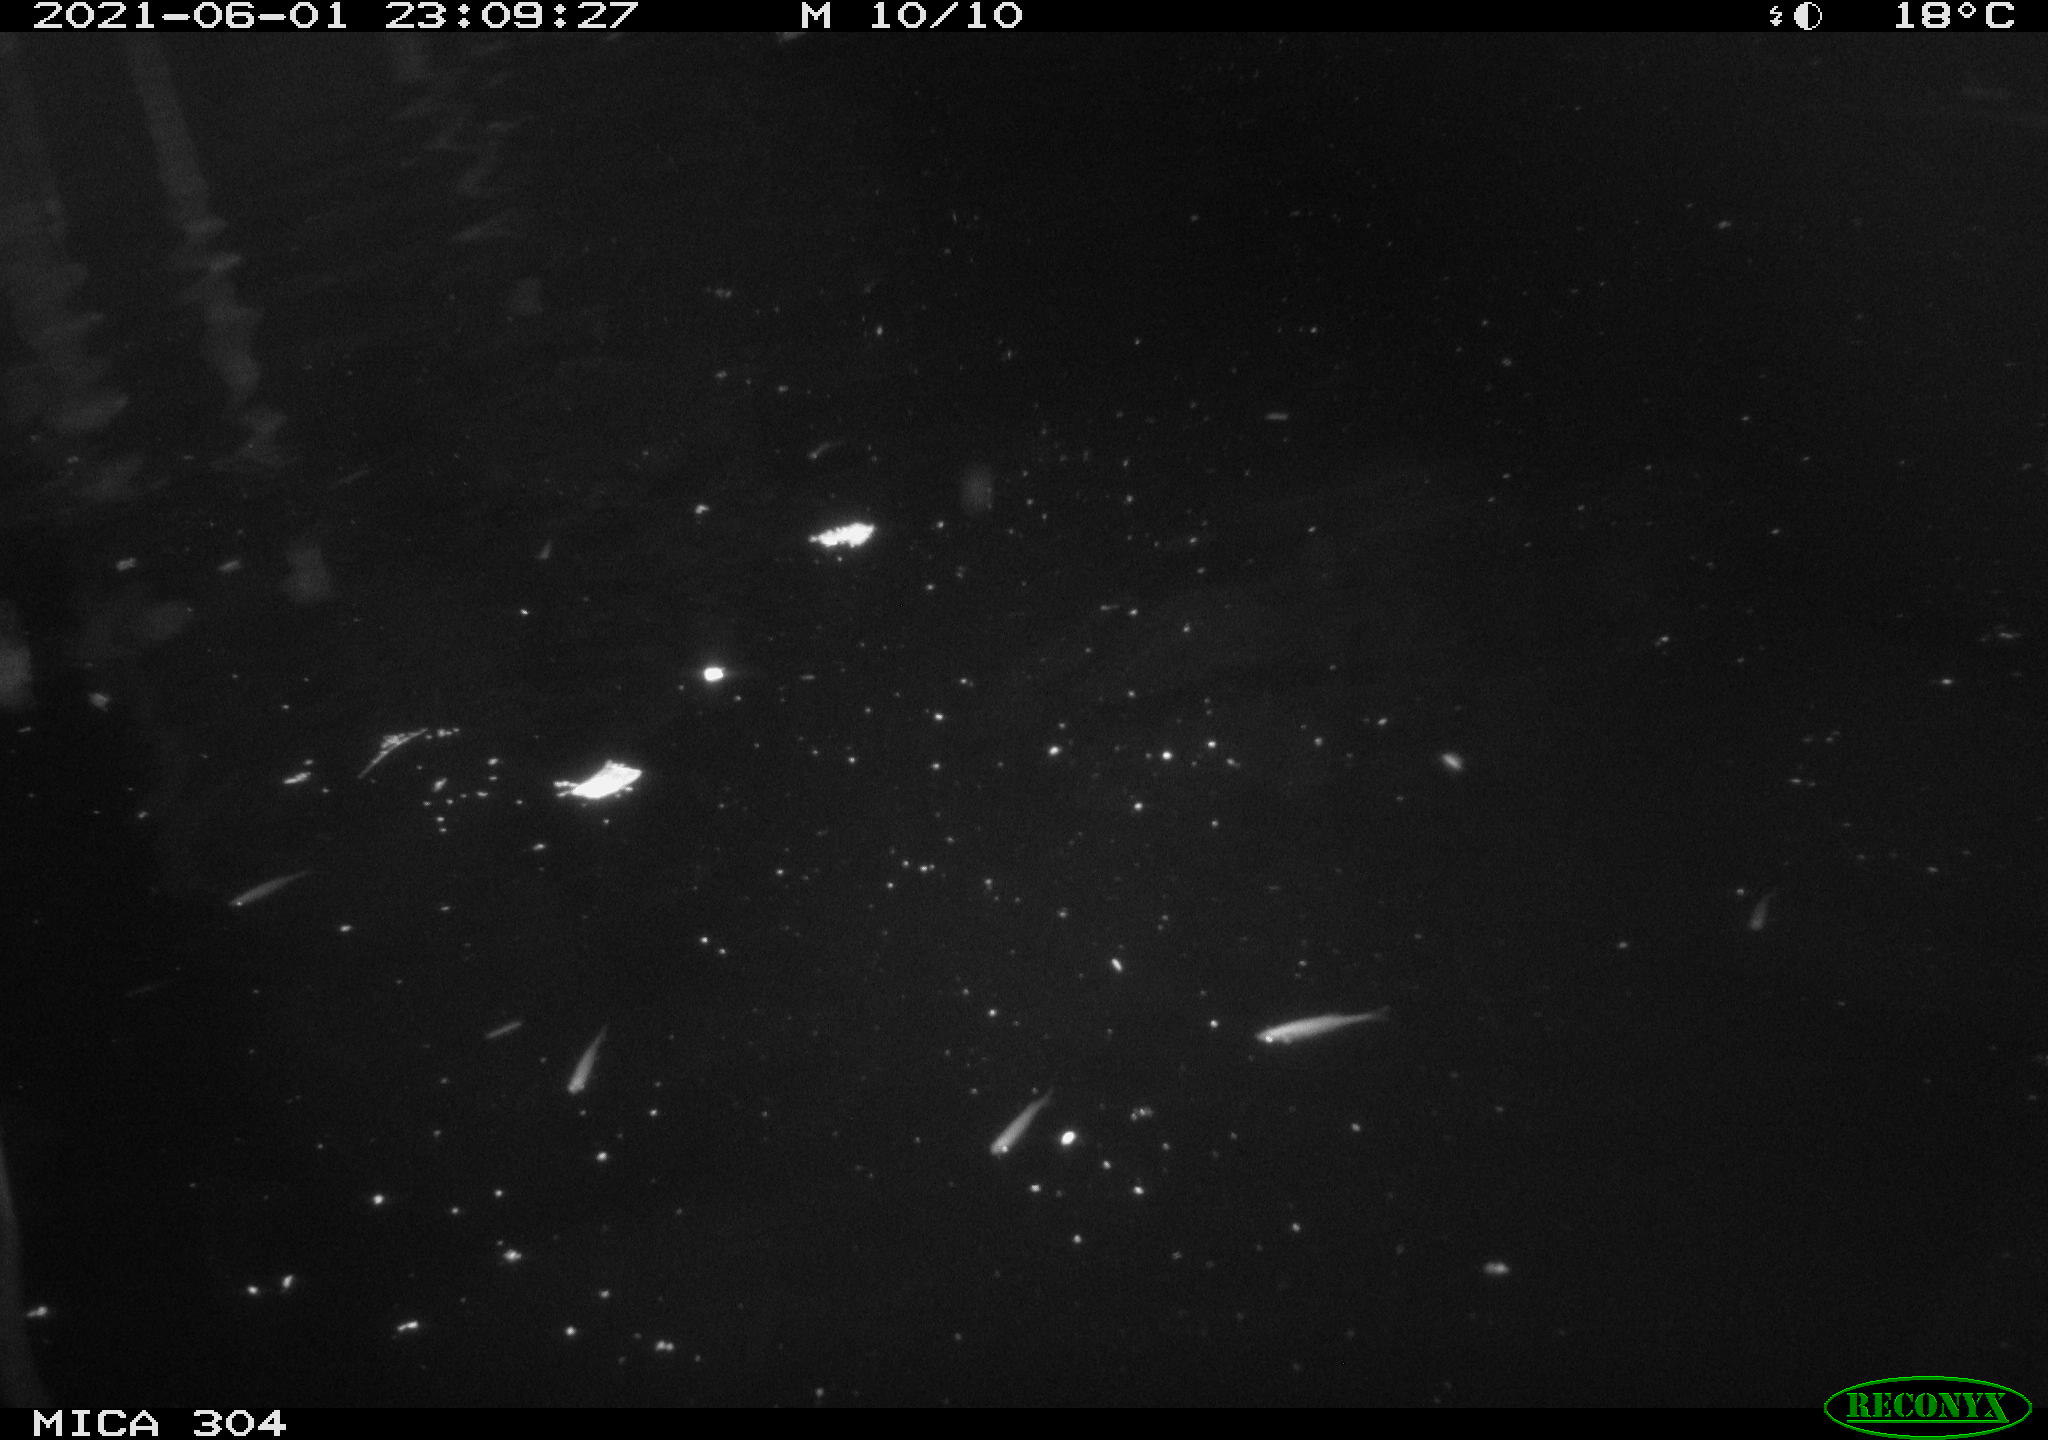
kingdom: Animalia
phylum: Chordata
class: Aves
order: Anseriformes
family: Anatidae
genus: Anas
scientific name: Anas platyrhynchos
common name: Mallard
